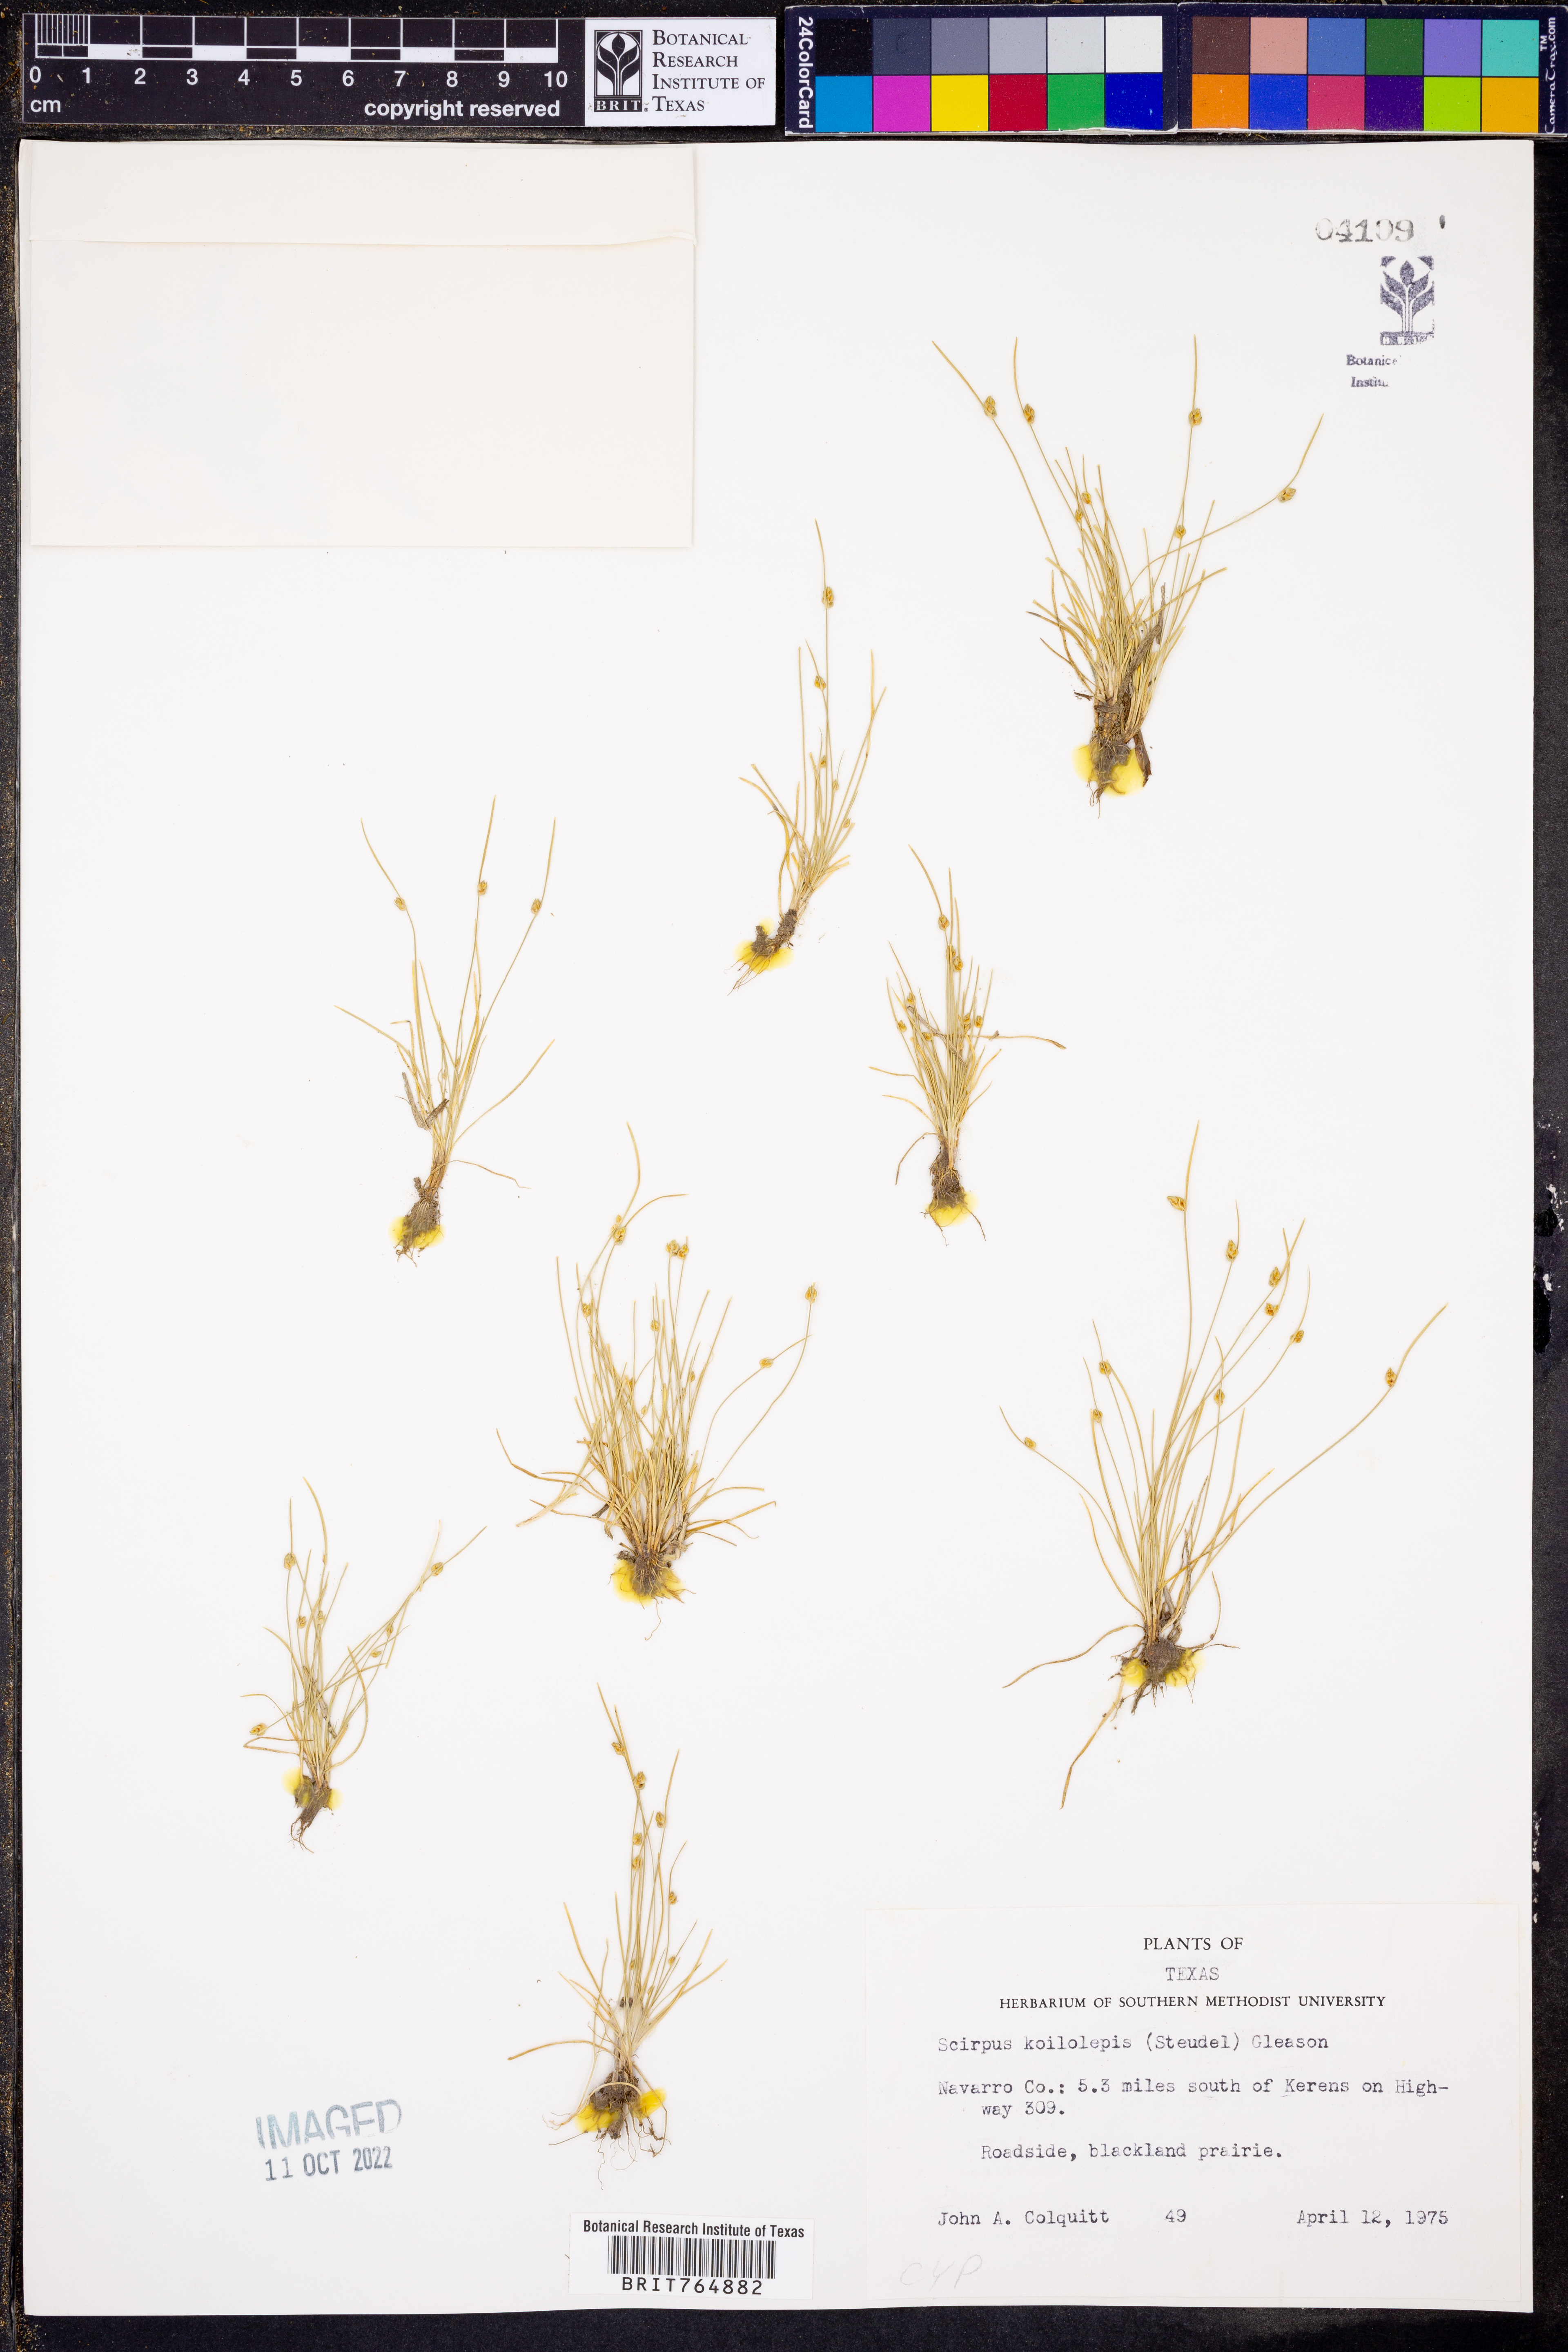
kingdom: Plantae
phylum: Tracheophyta
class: Liliopsida
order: Poales
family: Cyperaceae
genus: Isolepis
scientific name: Isolepis carinata
